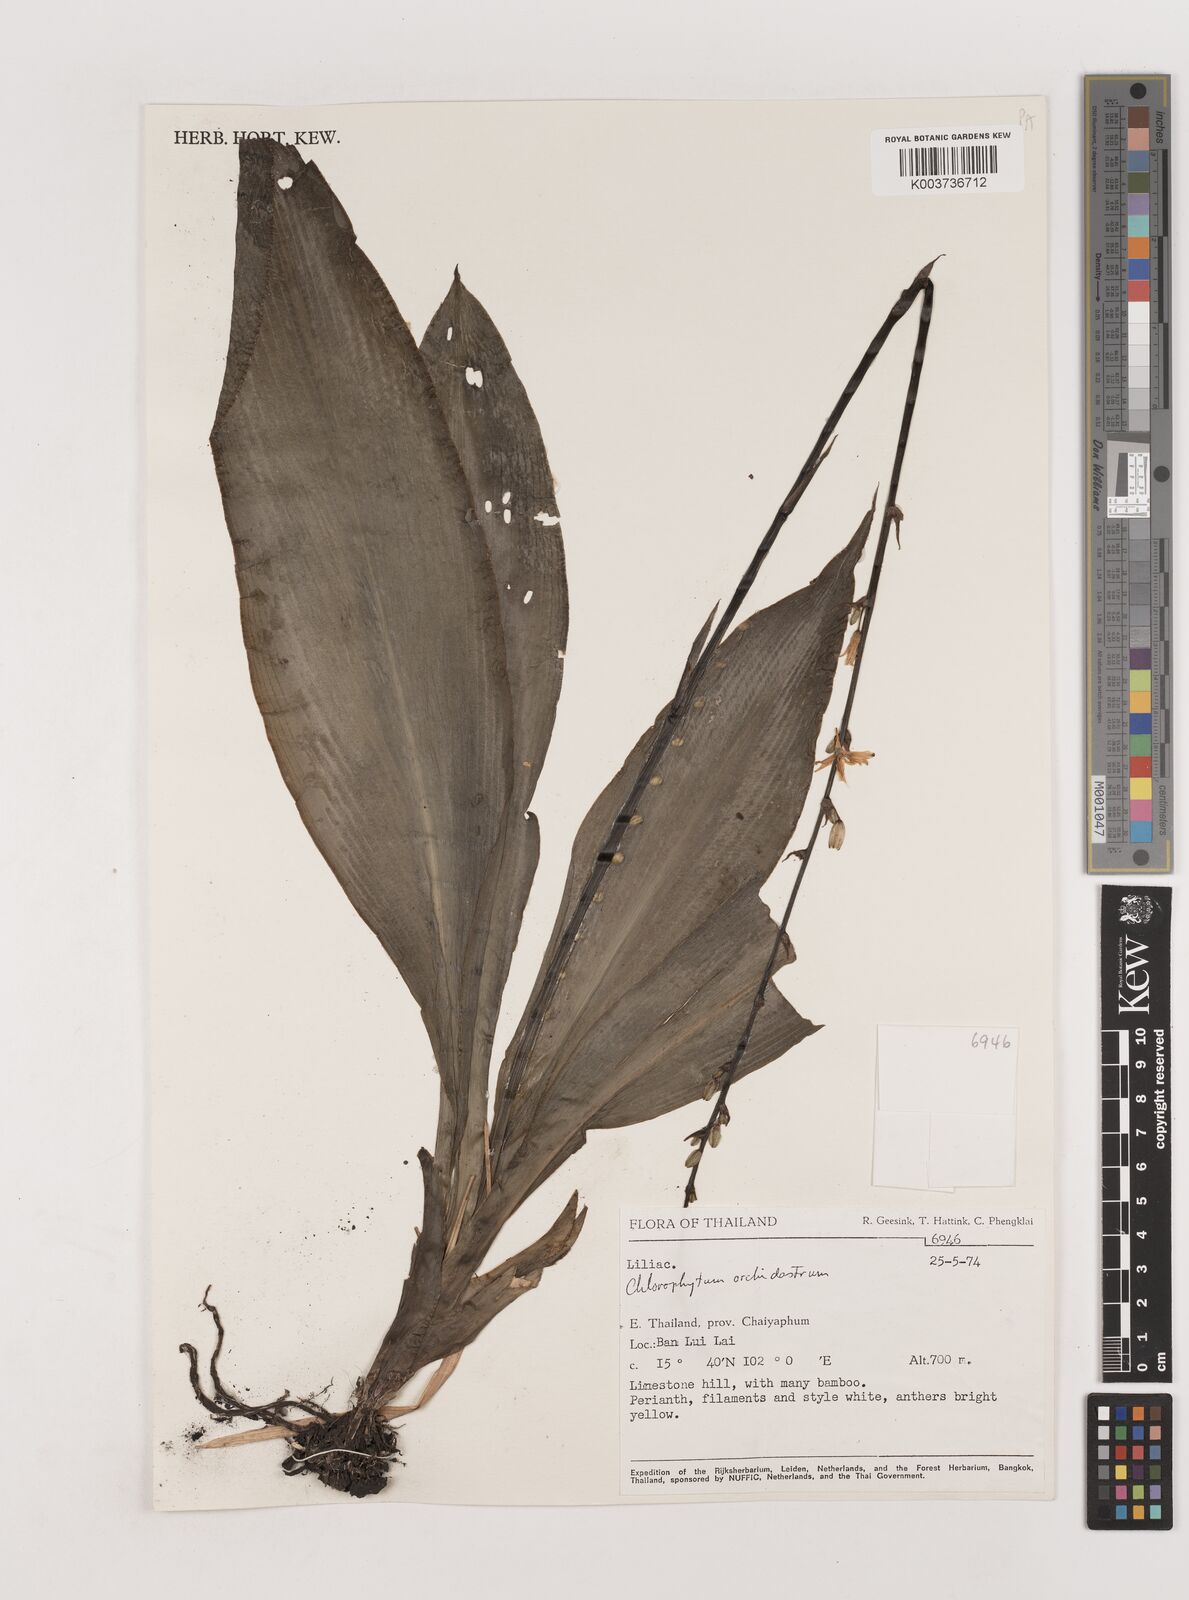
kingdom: Plantae
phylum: Tracheophyta
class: Liliopsida
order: Asparagales
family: Asparagaceae
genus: Chlorophytum
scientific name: Chlorophytum orchidastrum
